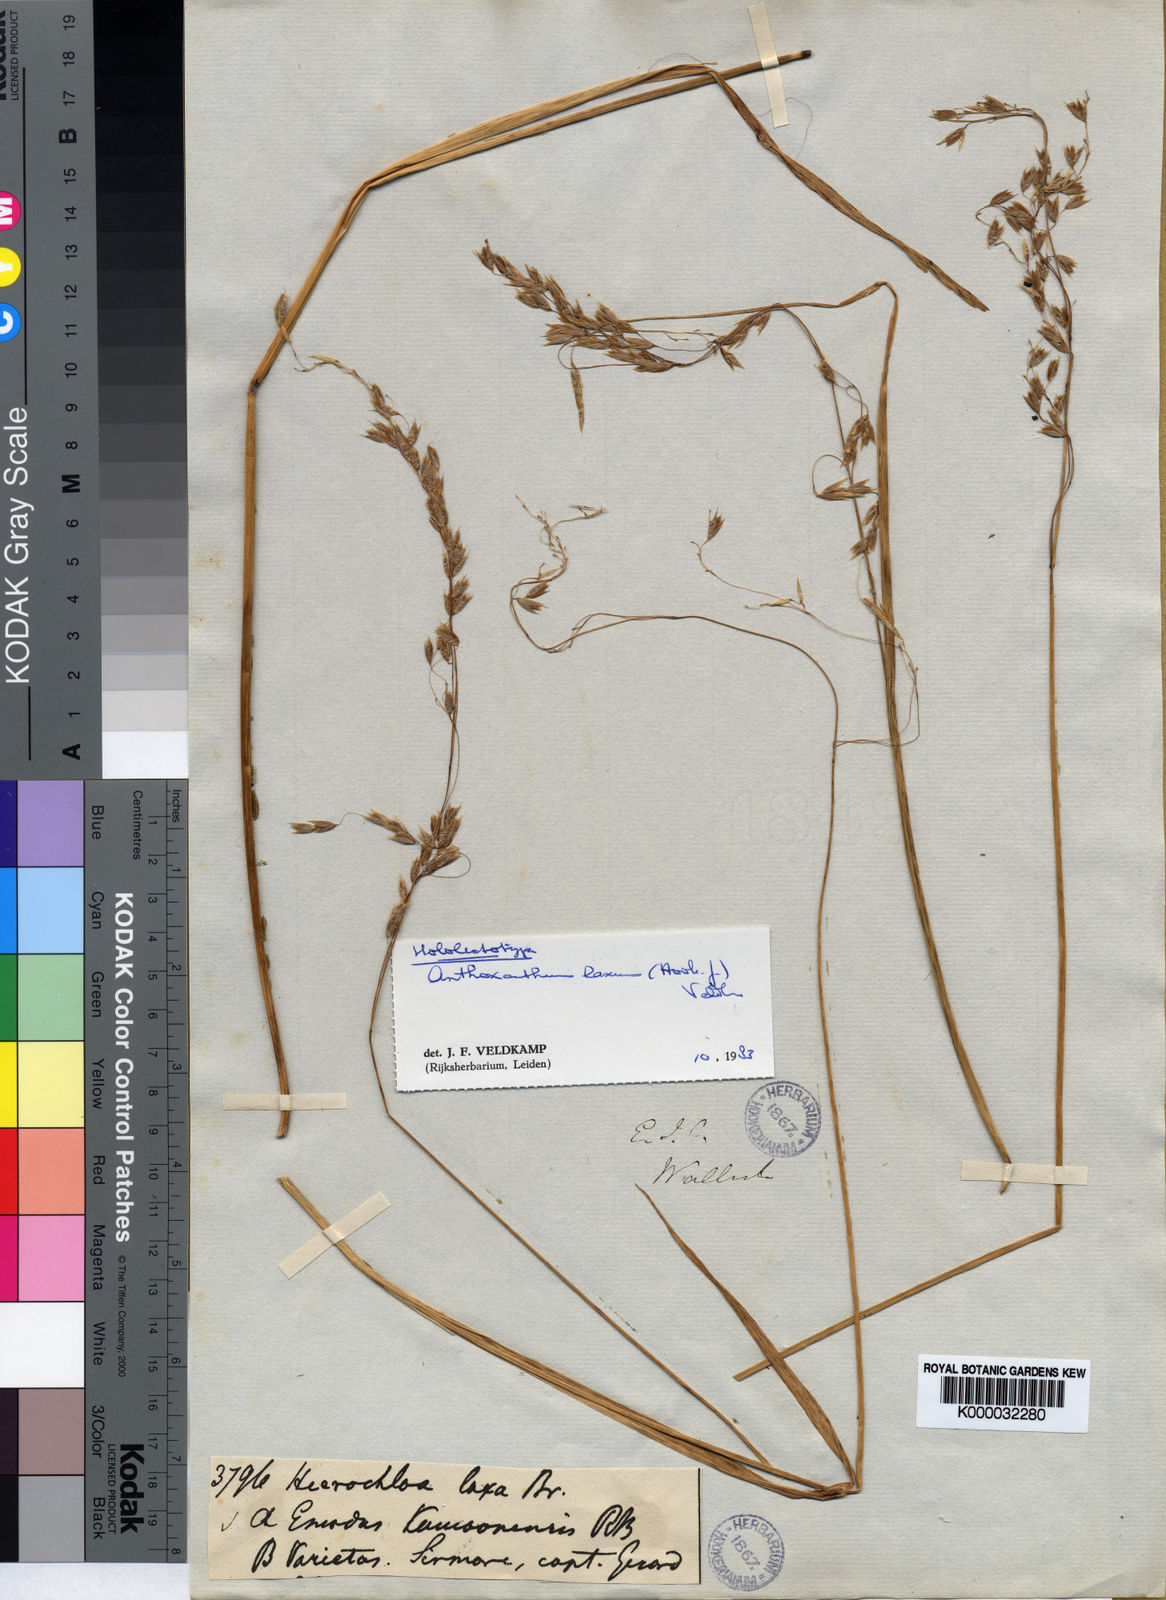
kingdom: Plantae
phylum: Tracheophyta
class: Liliopsida
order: Poales
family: Poaceae
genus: Hierochloe
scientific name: Hierochloe
